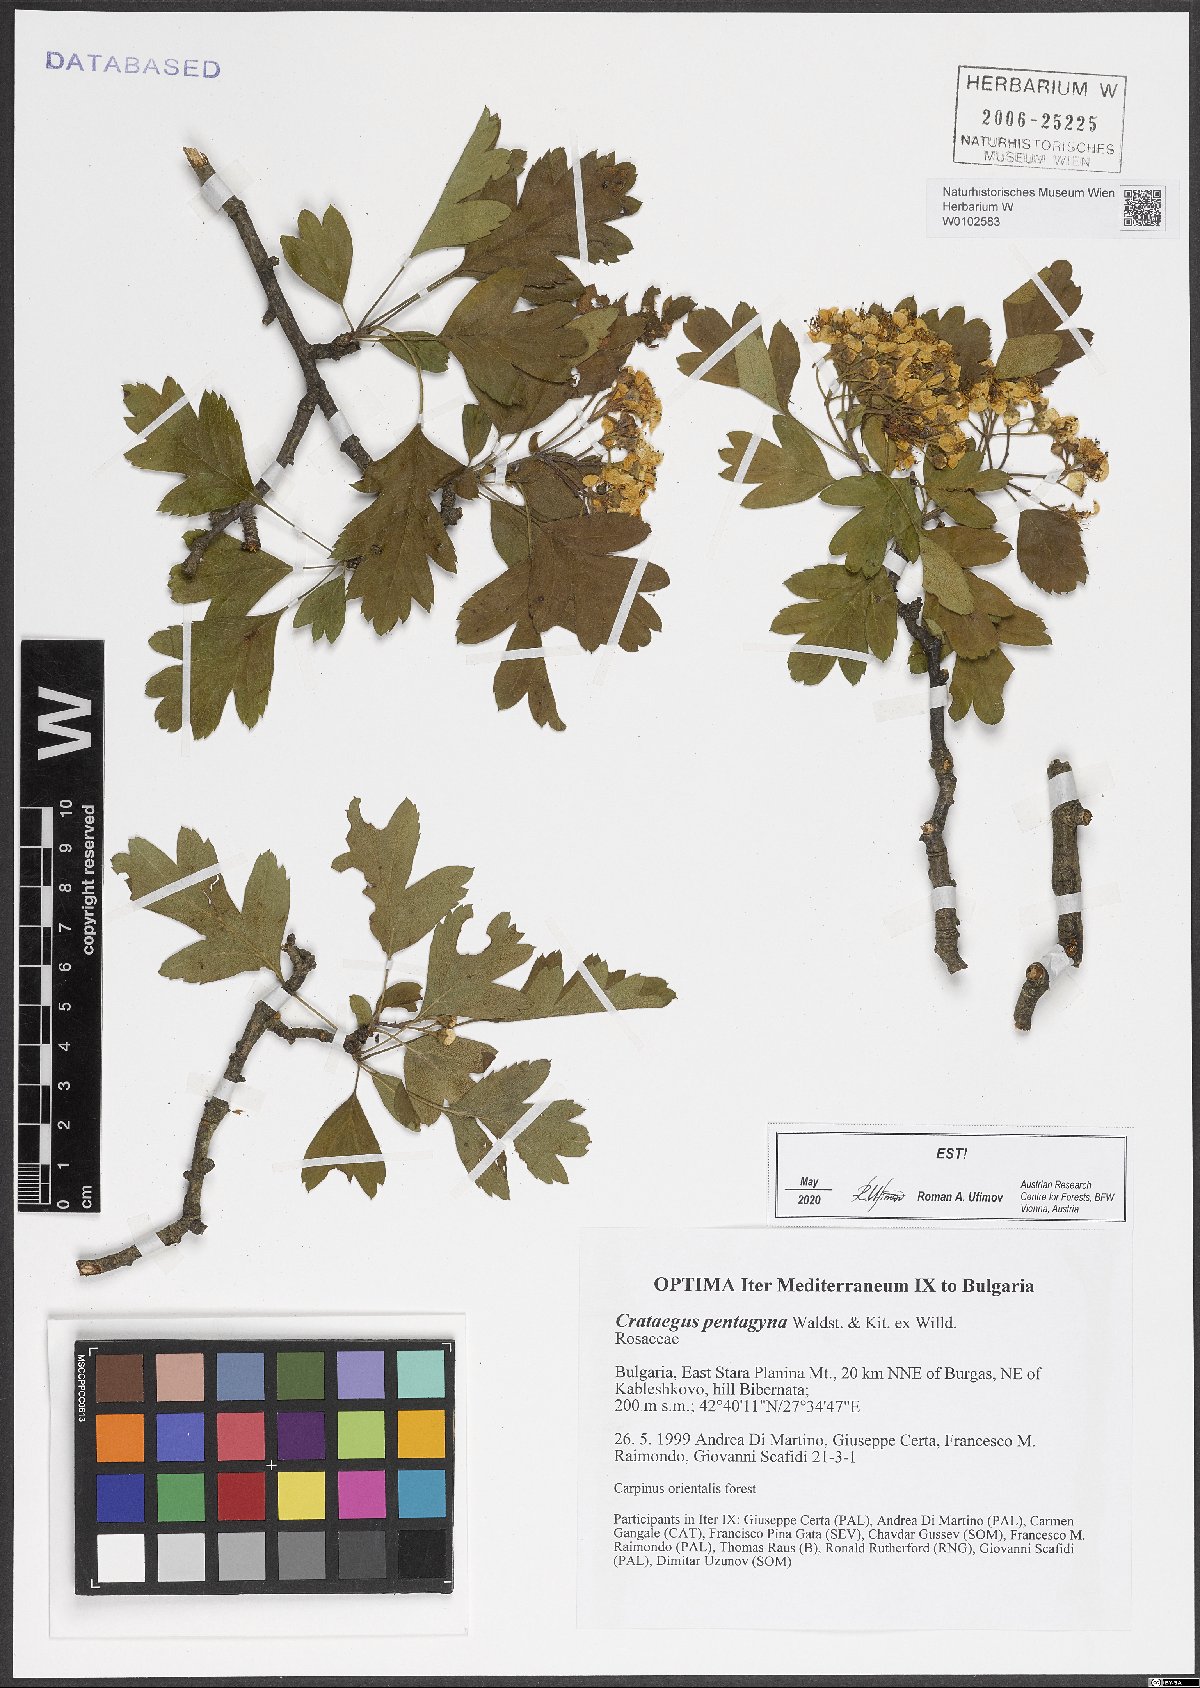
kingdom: Plantae
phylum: Tracheophyta
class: Magnoliopsida
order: Rosales
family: Rosaceae
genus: Crataegus
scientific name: Crataegus pentagyna
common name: Small-flowered black hawthorn
